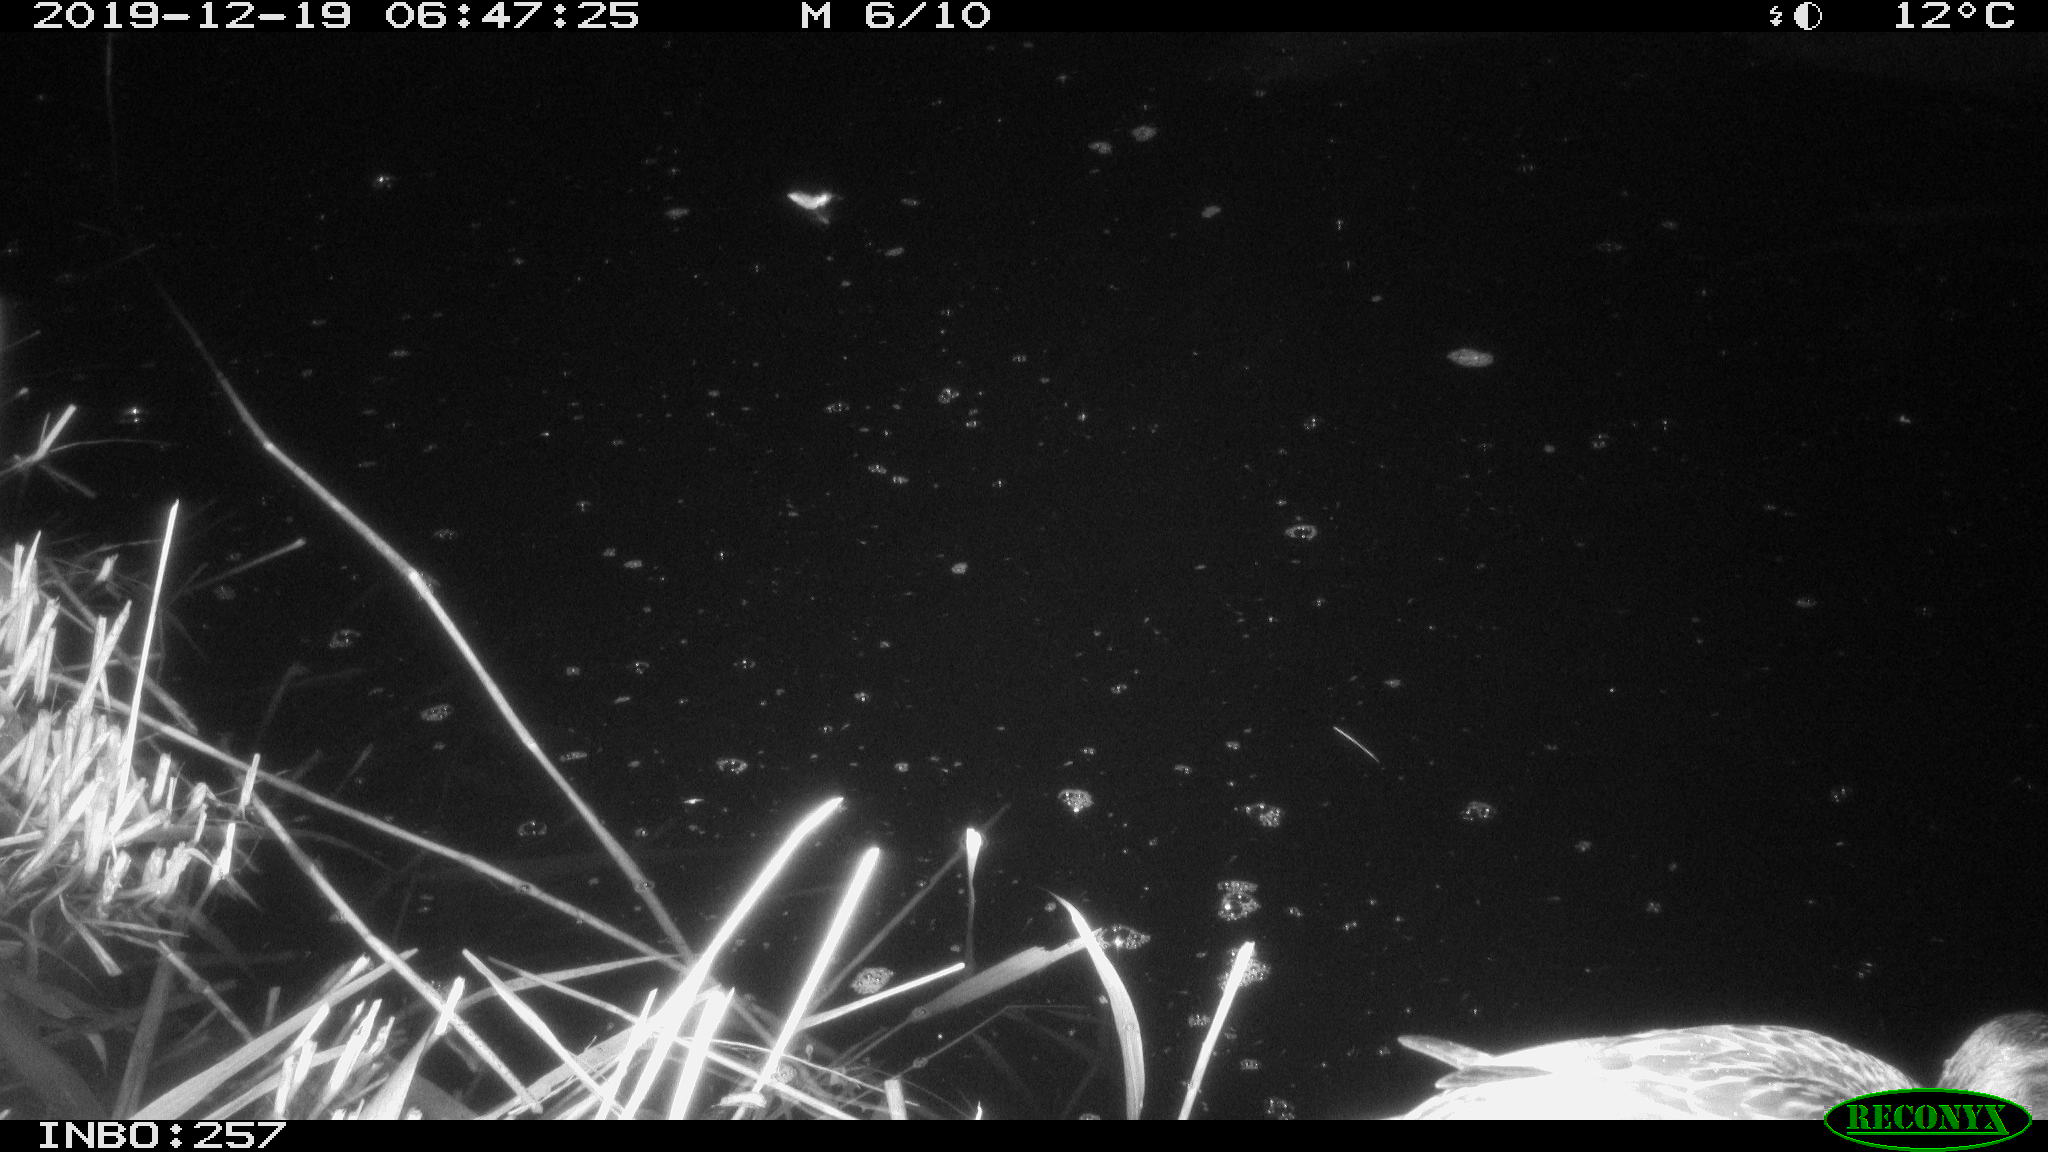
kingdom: Animalia
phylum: Chordata
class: Aves
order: Anseriformes
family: Anatidae
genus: Anas
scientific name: Anas platyrhynchos
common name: Mallard
